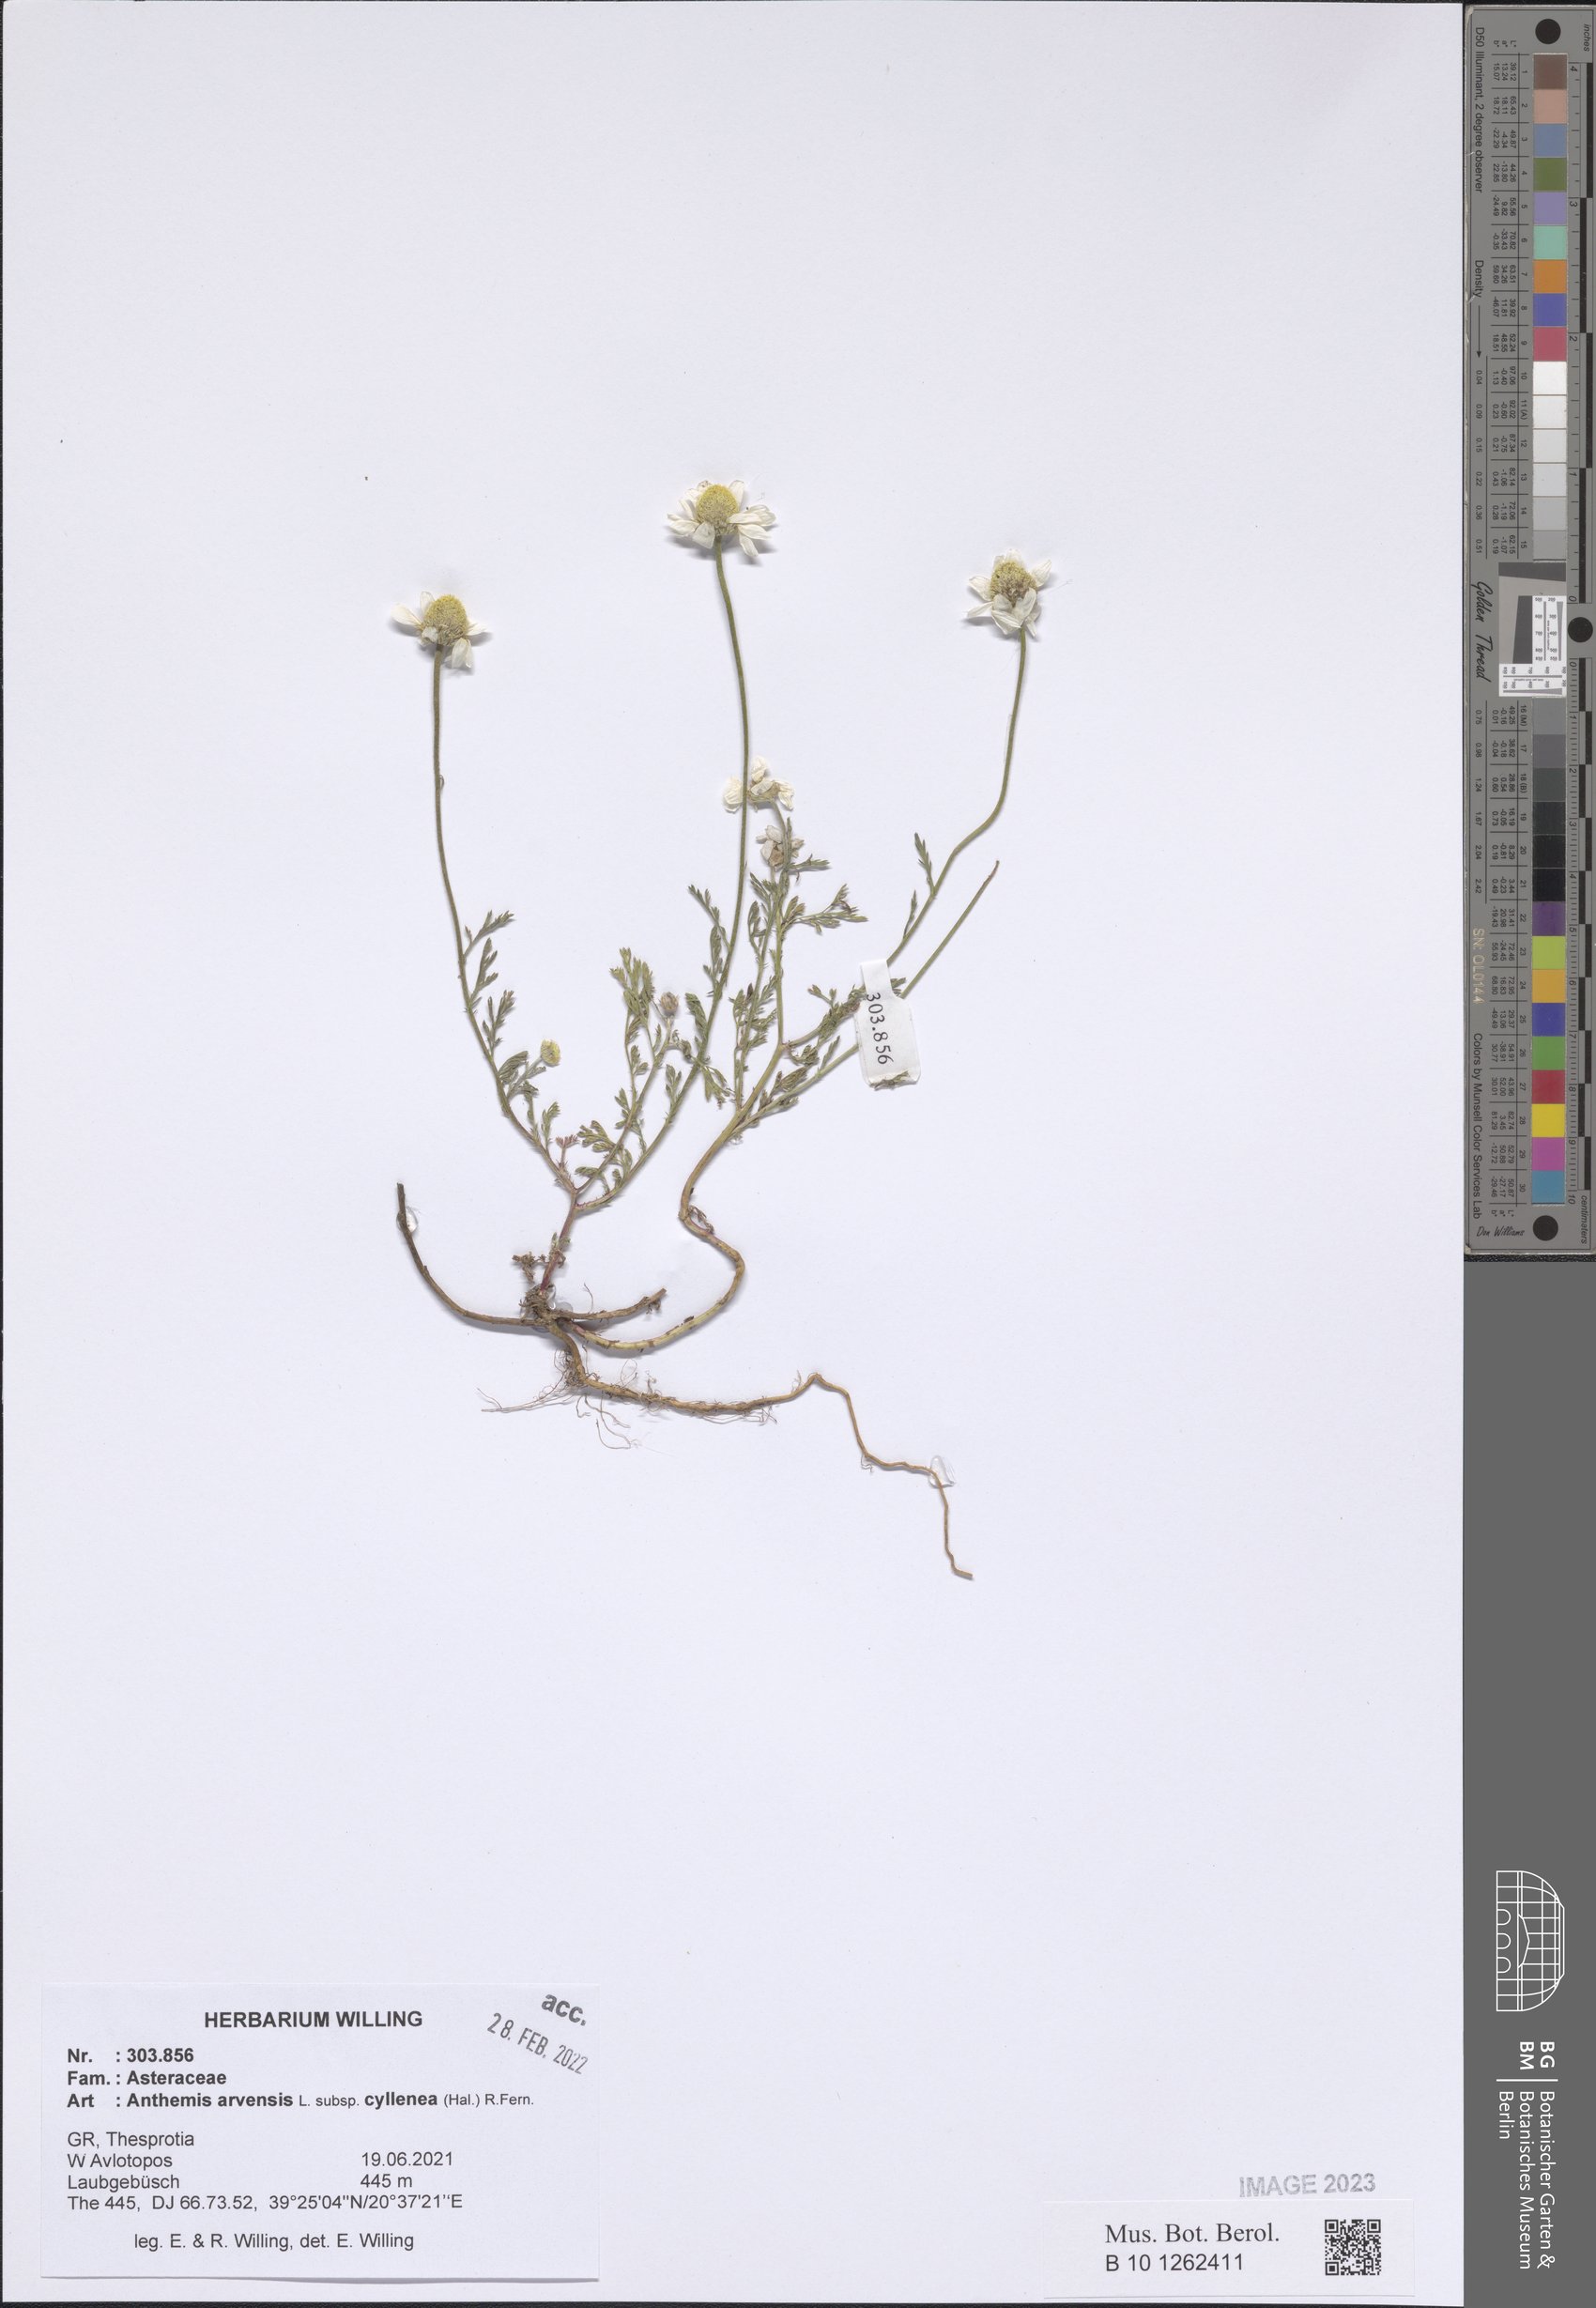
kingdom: Plantae
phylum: Tracheophyta
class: Magnoliopsida
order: Asterales
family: Asteraceae
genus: Anthemis
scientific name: Anthemis arvensis
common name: Corn chamomile
